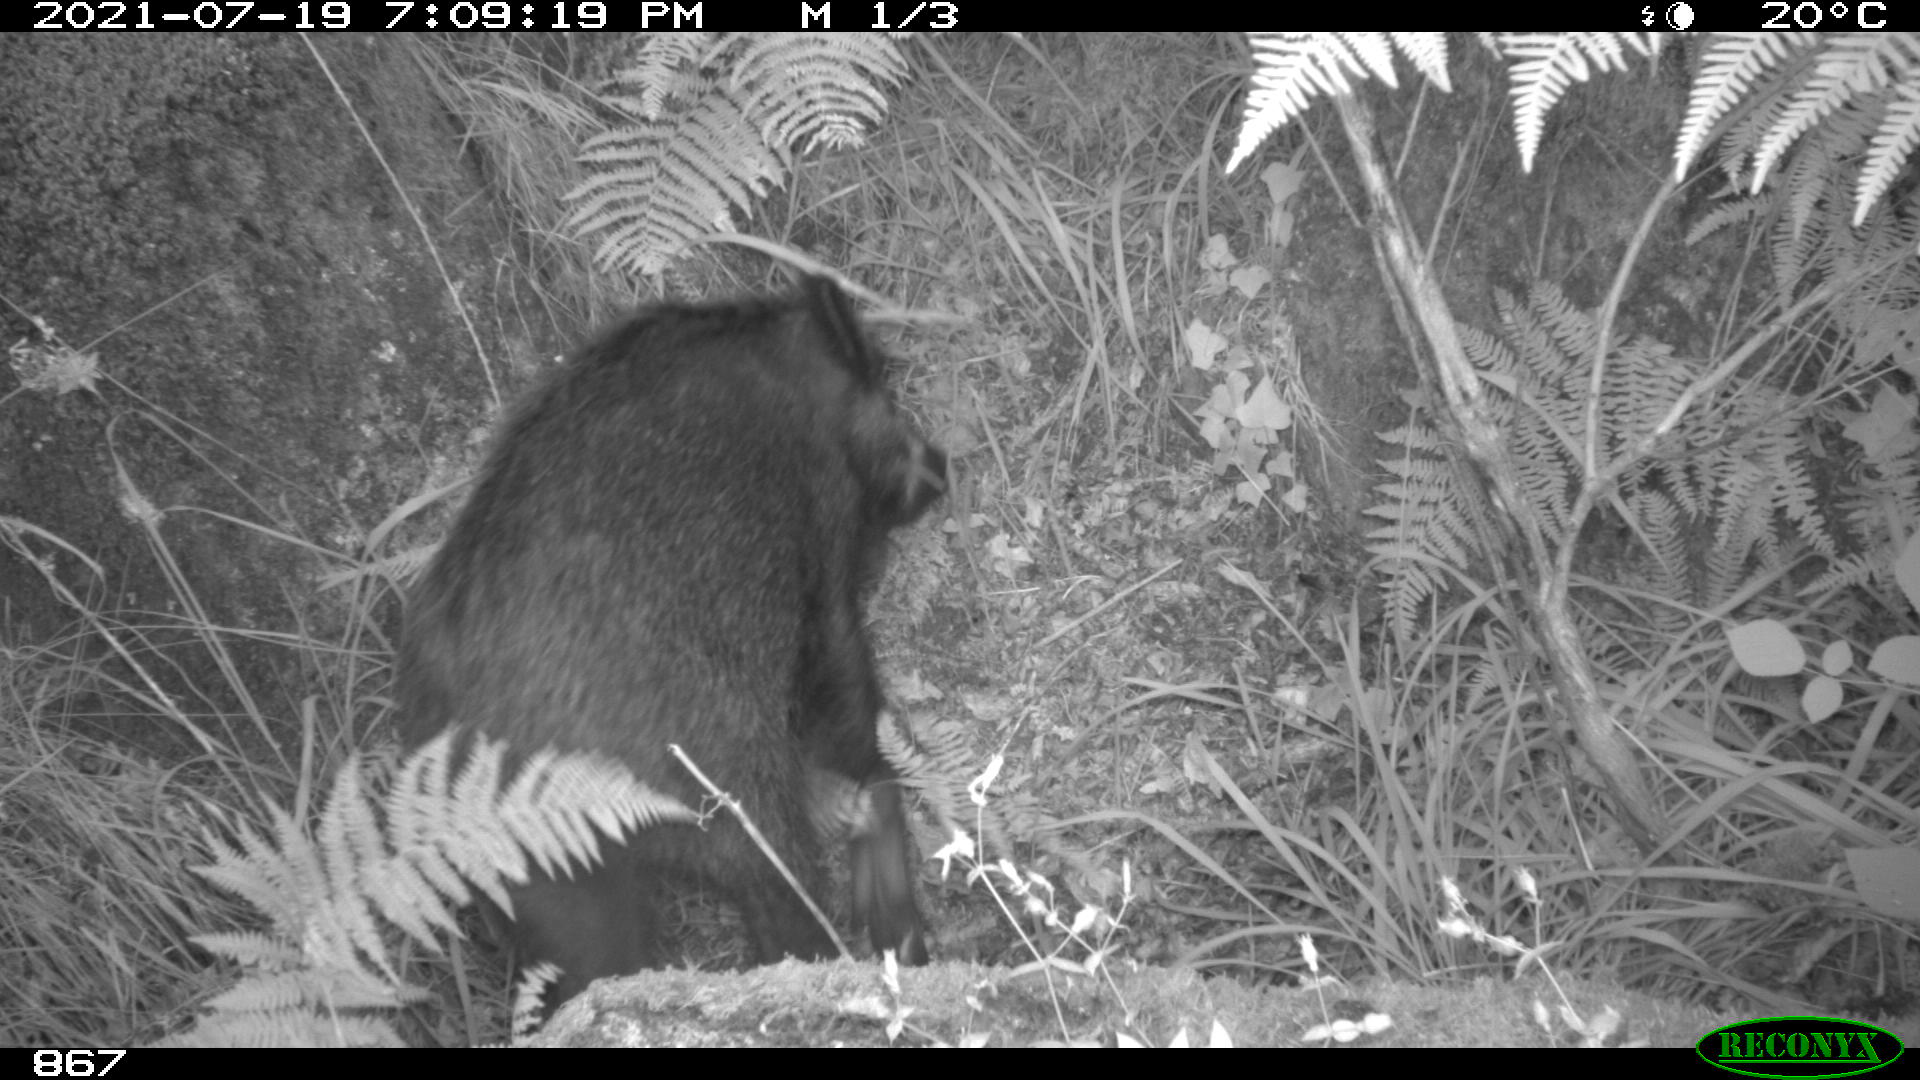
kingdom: Animalia
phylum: Chordata
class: Mammalia
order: Artiodactyla
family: Suidae
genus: Sus
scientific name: Sus scrofa
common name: Wild boar
